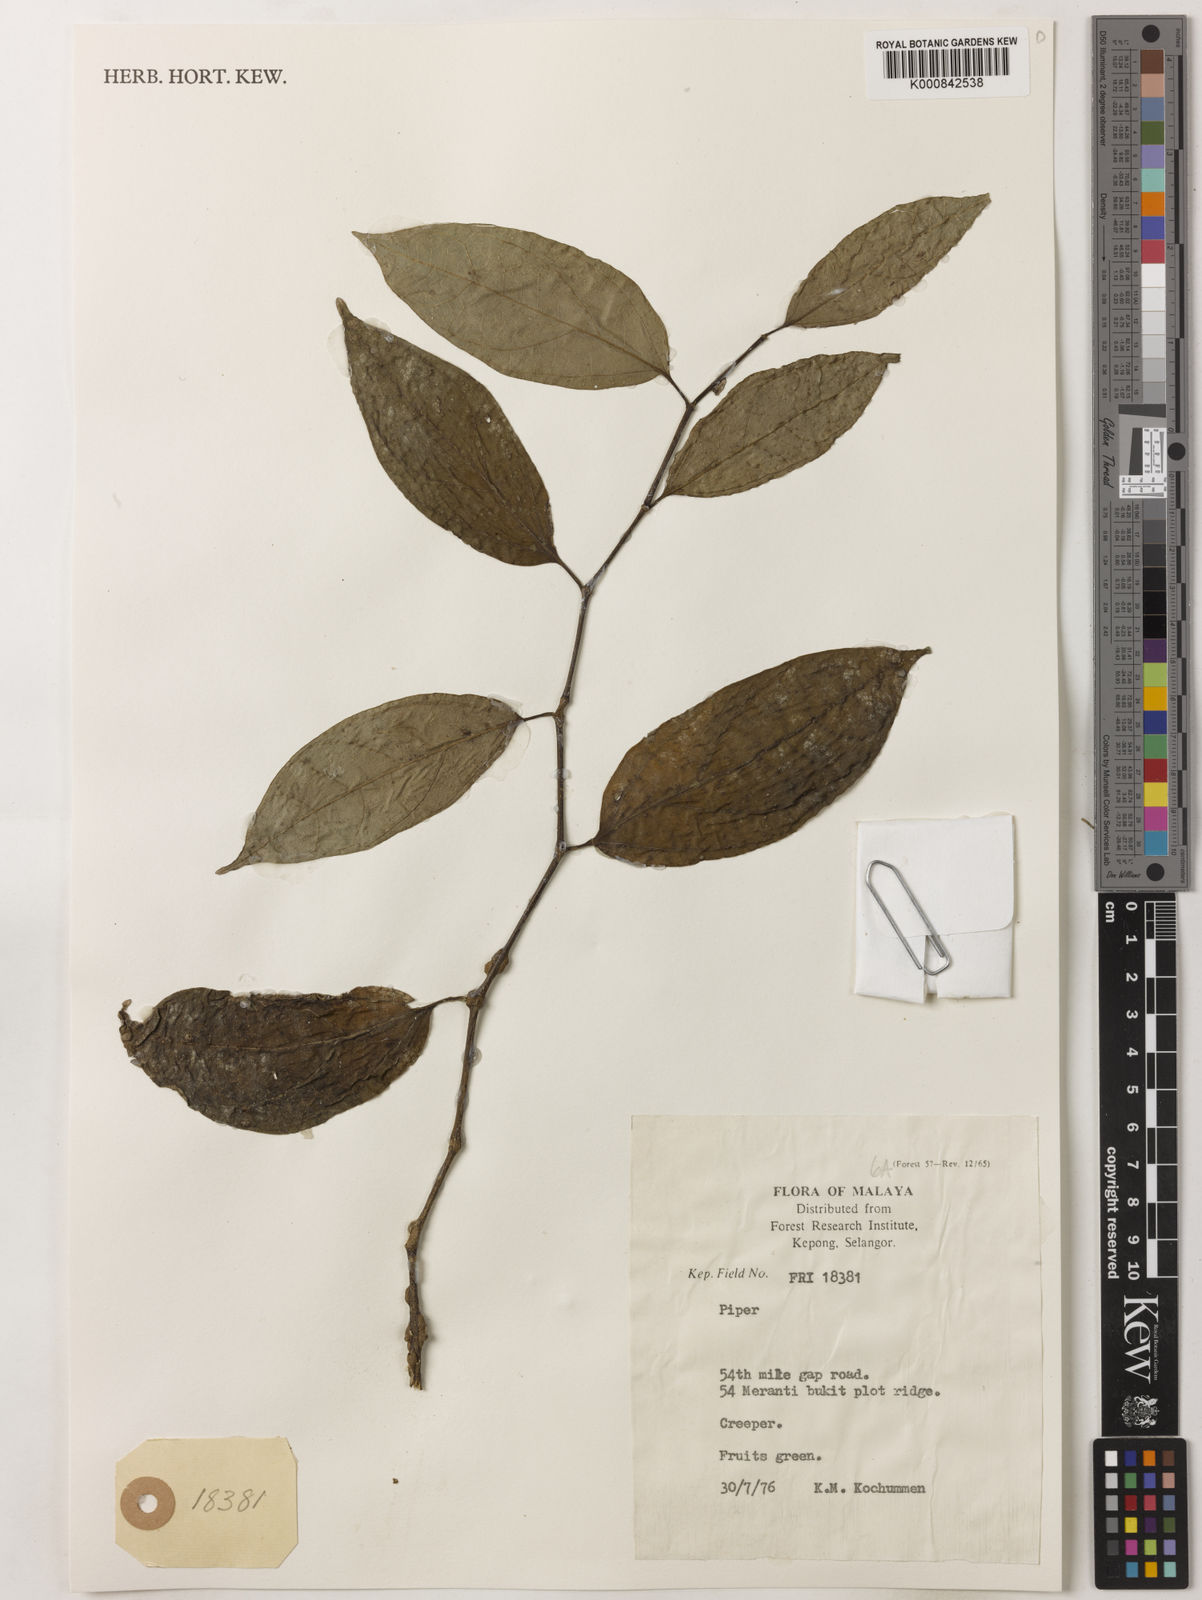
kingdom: Plantae
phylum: Tracheophyta
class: Magnoliopsida
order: Piperales
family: Piperaceae
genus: Piper
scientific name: Piper
